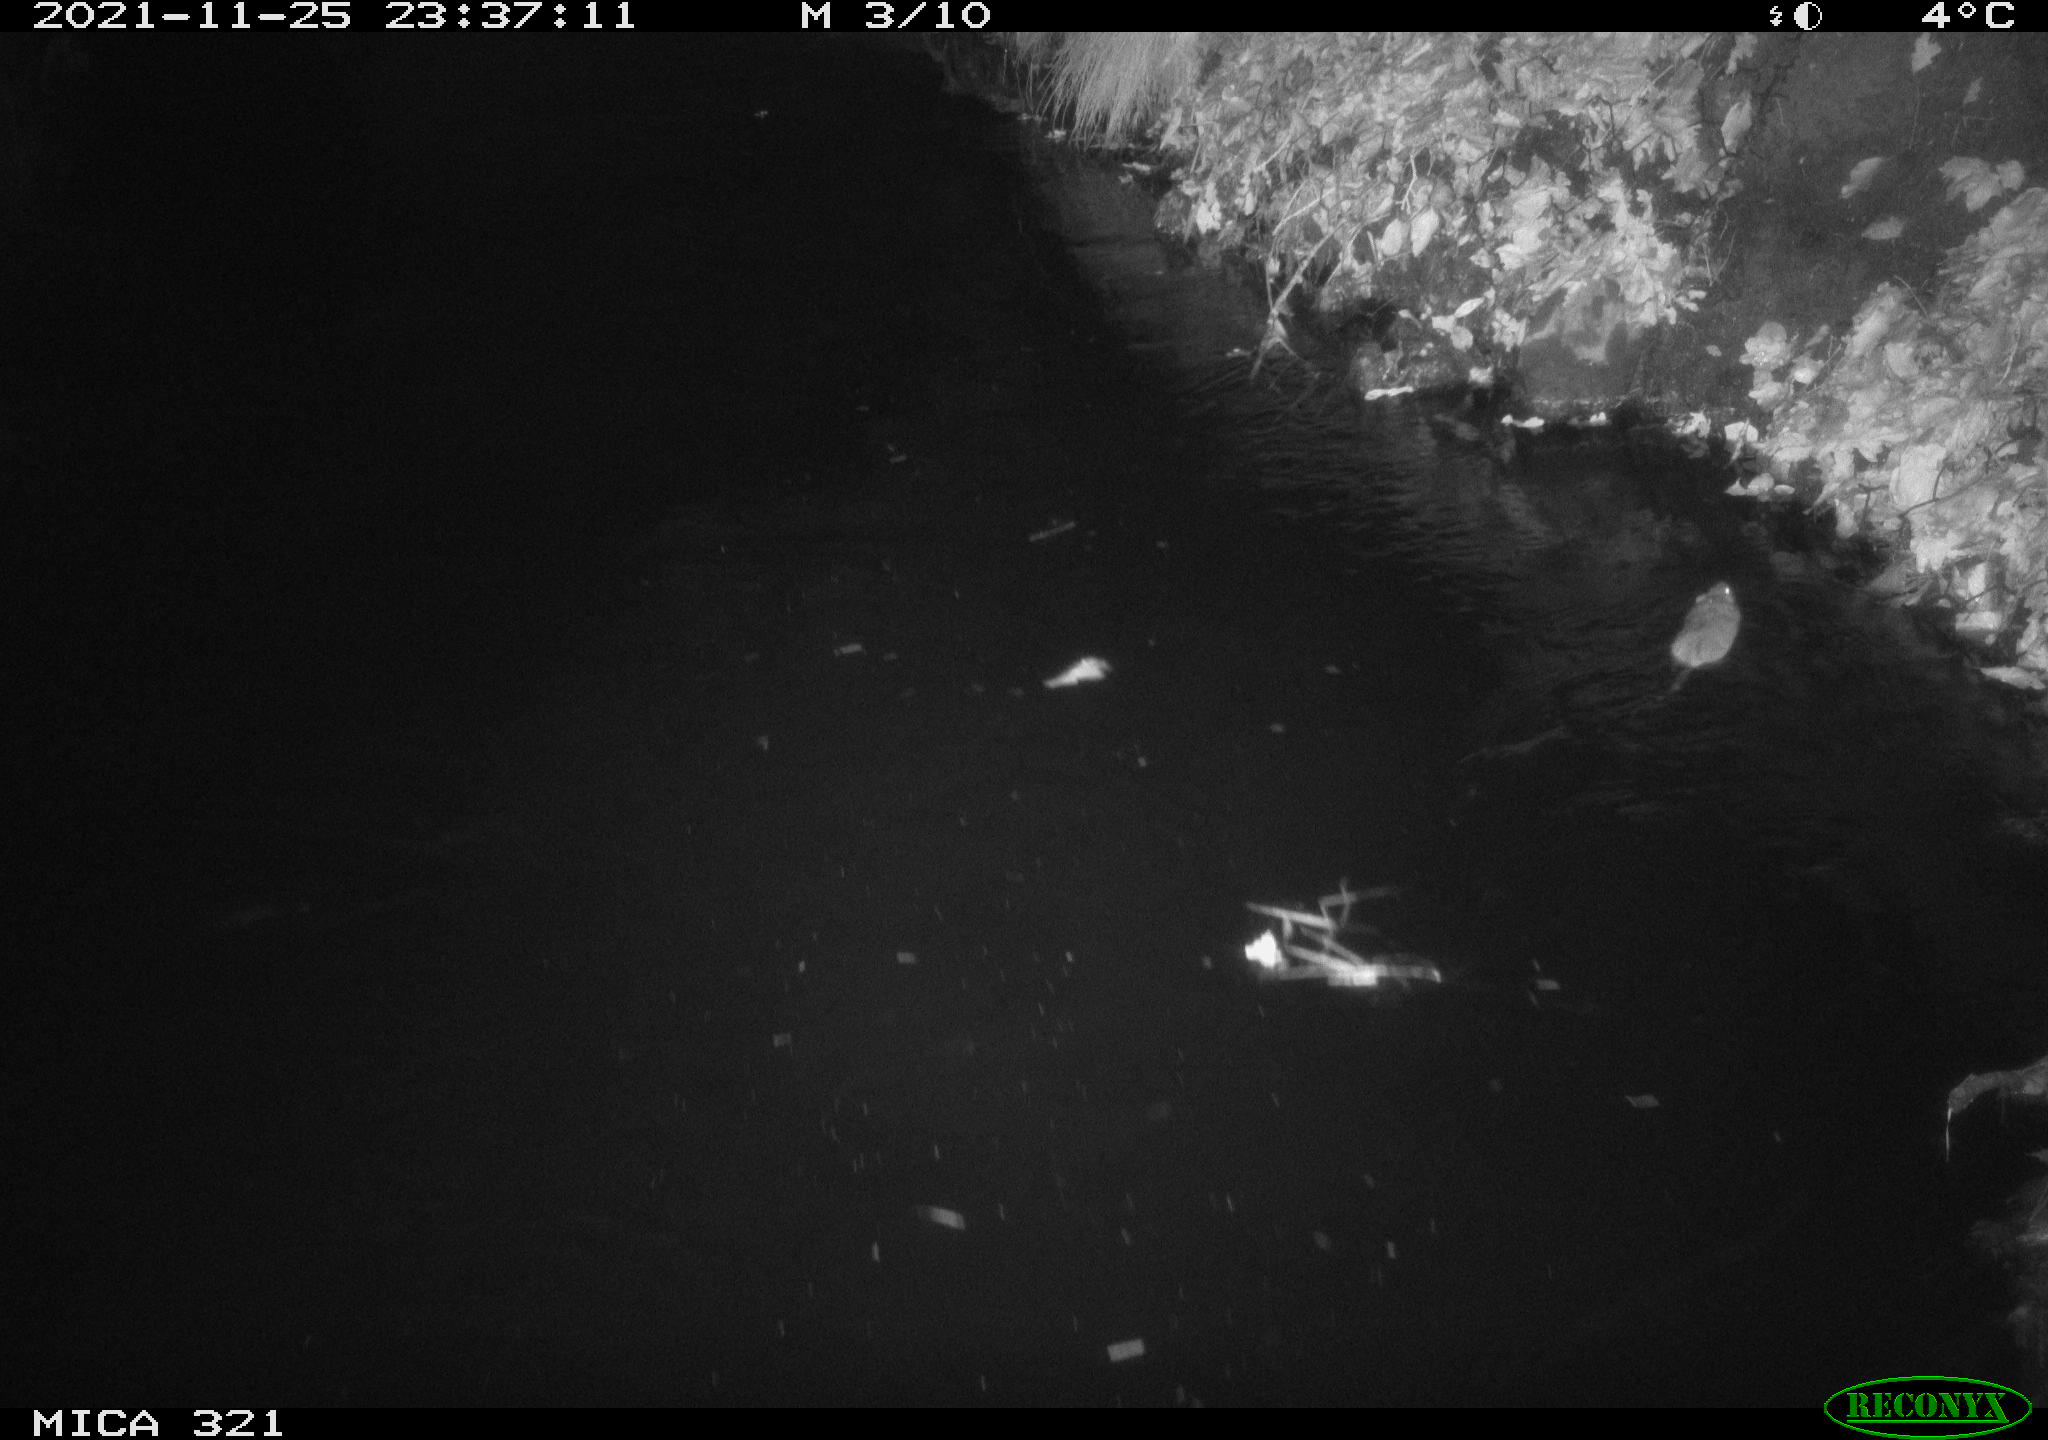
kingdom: Animalia
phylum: Chordata
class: Mammalia
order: Rodentia
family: Muridae
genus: Rattus
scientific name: Rattus norvegicus
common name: Brown rat
